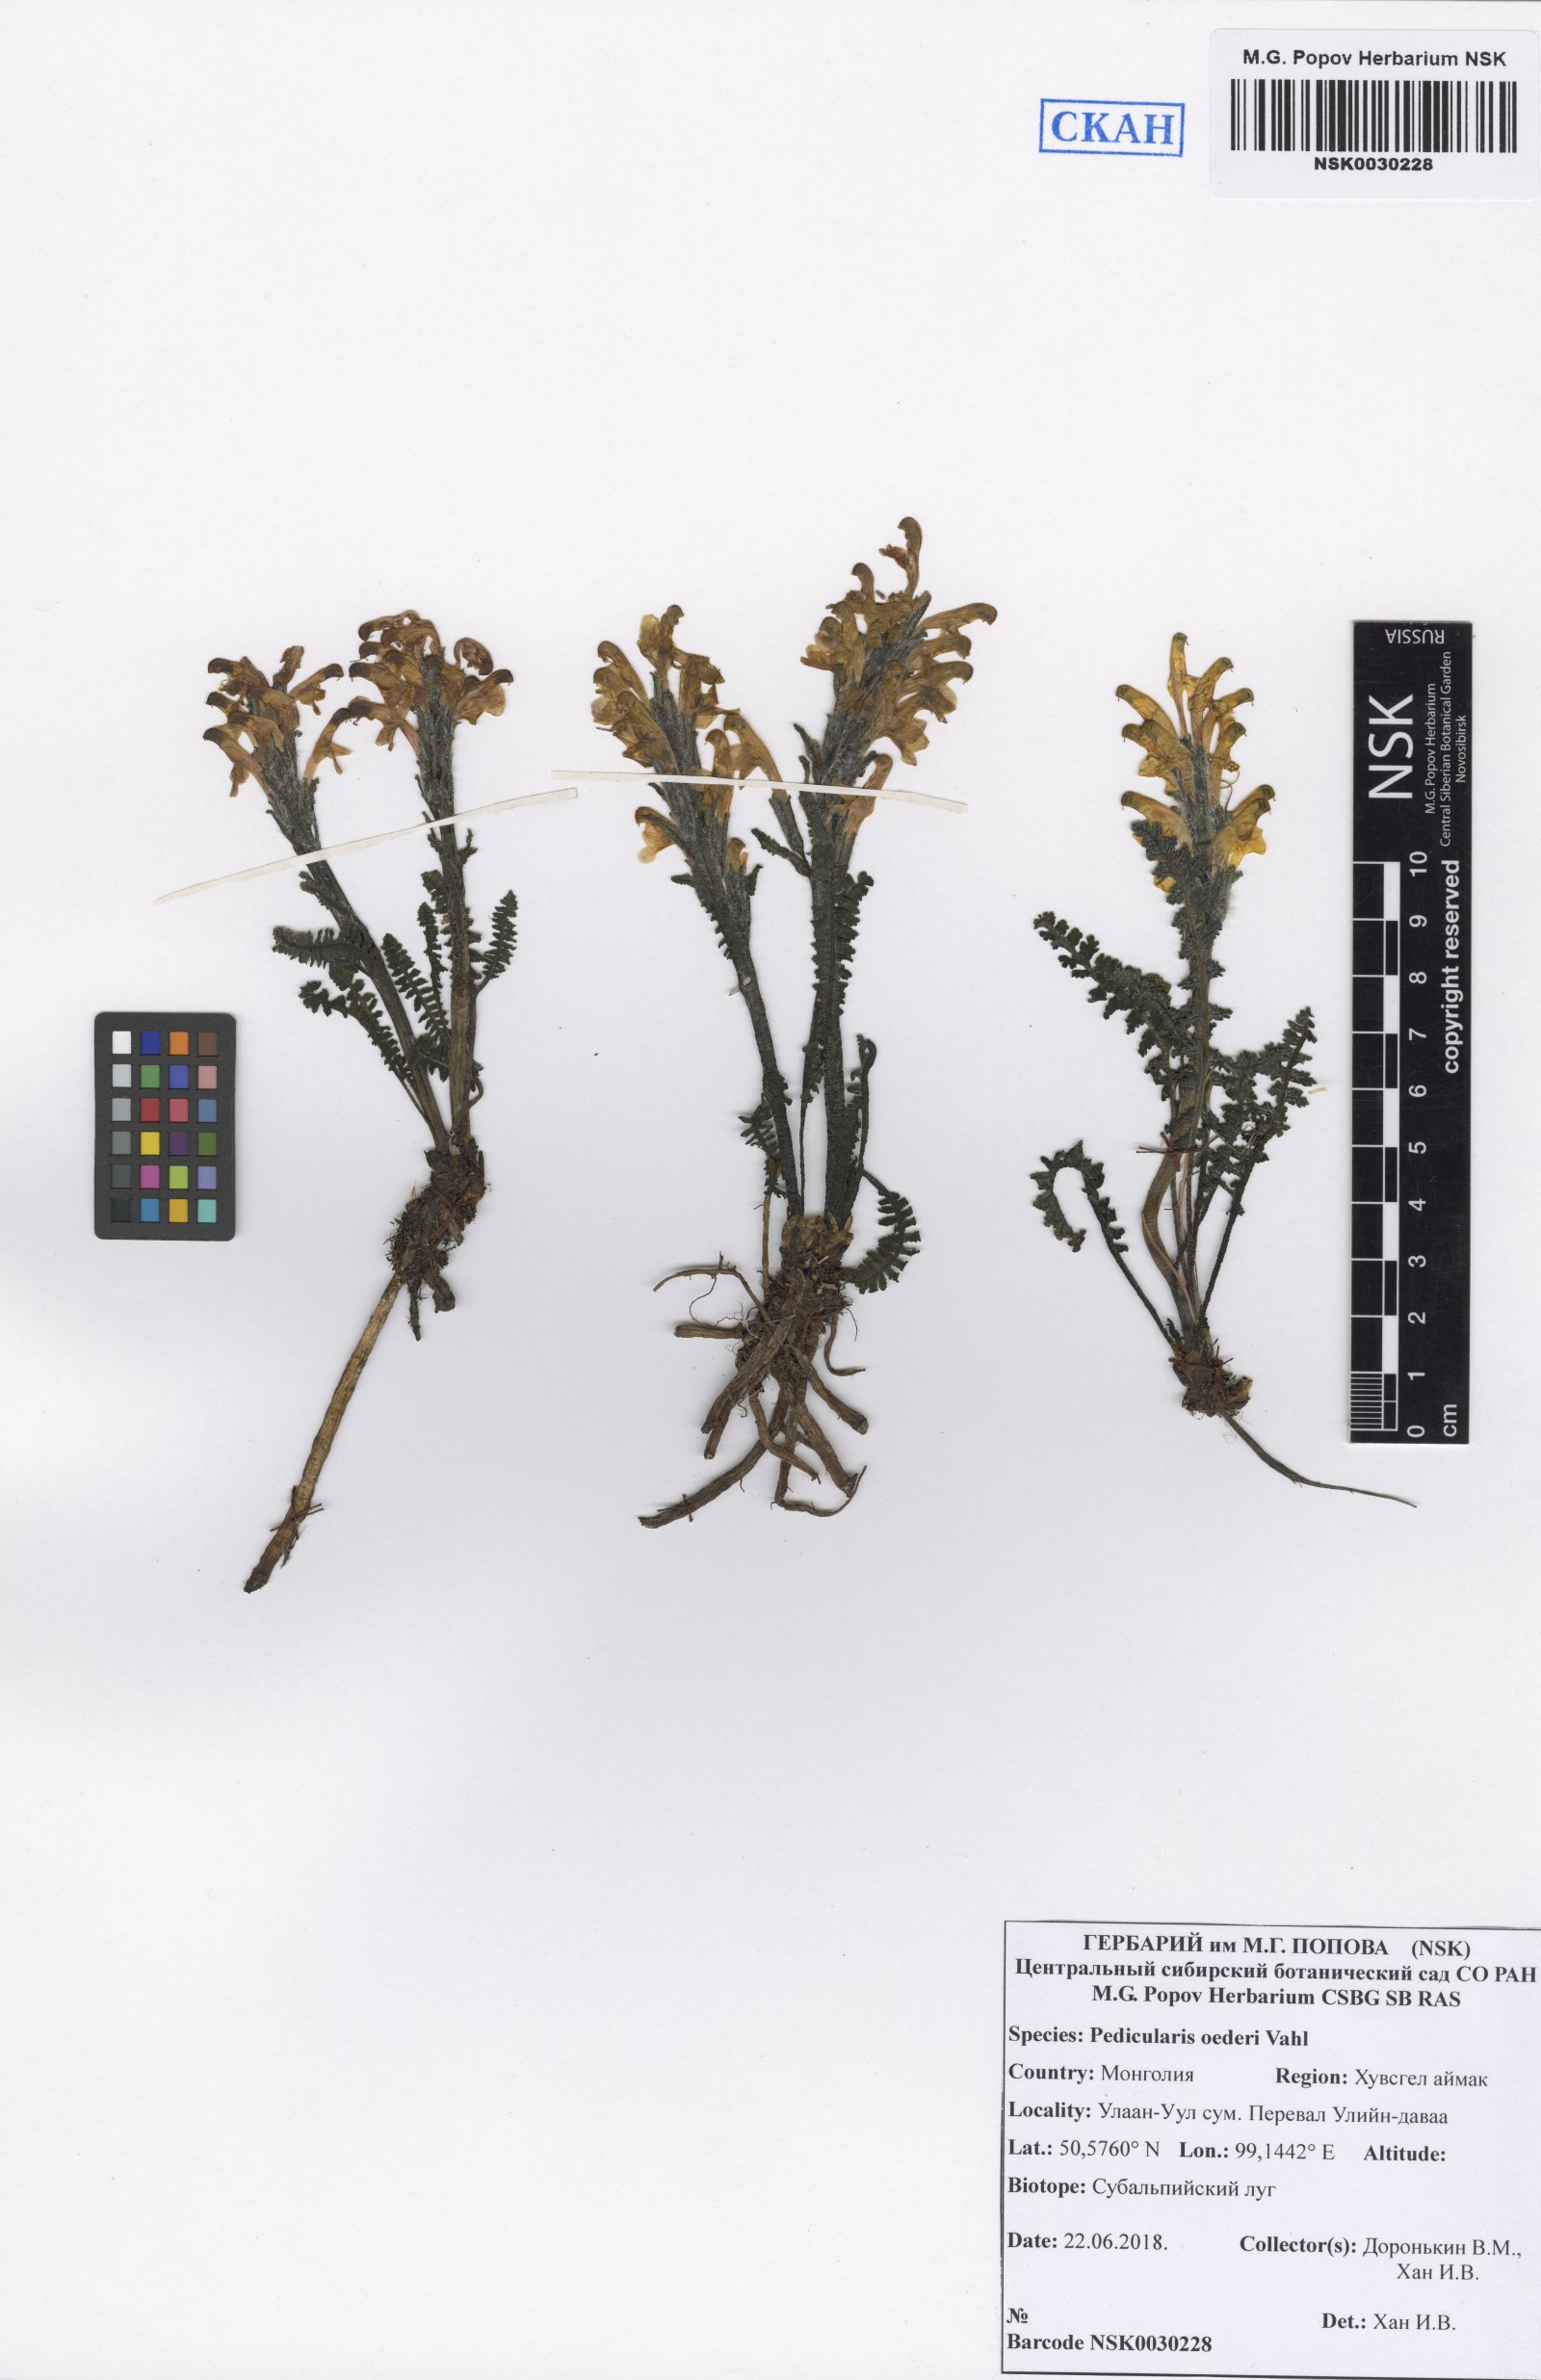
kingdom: Plantae
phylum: Tracheophyta
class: Magnoliopsida
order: Lamiales
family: Orobanchaceae
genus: Pedicularis
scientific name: Pedicularis oederi
